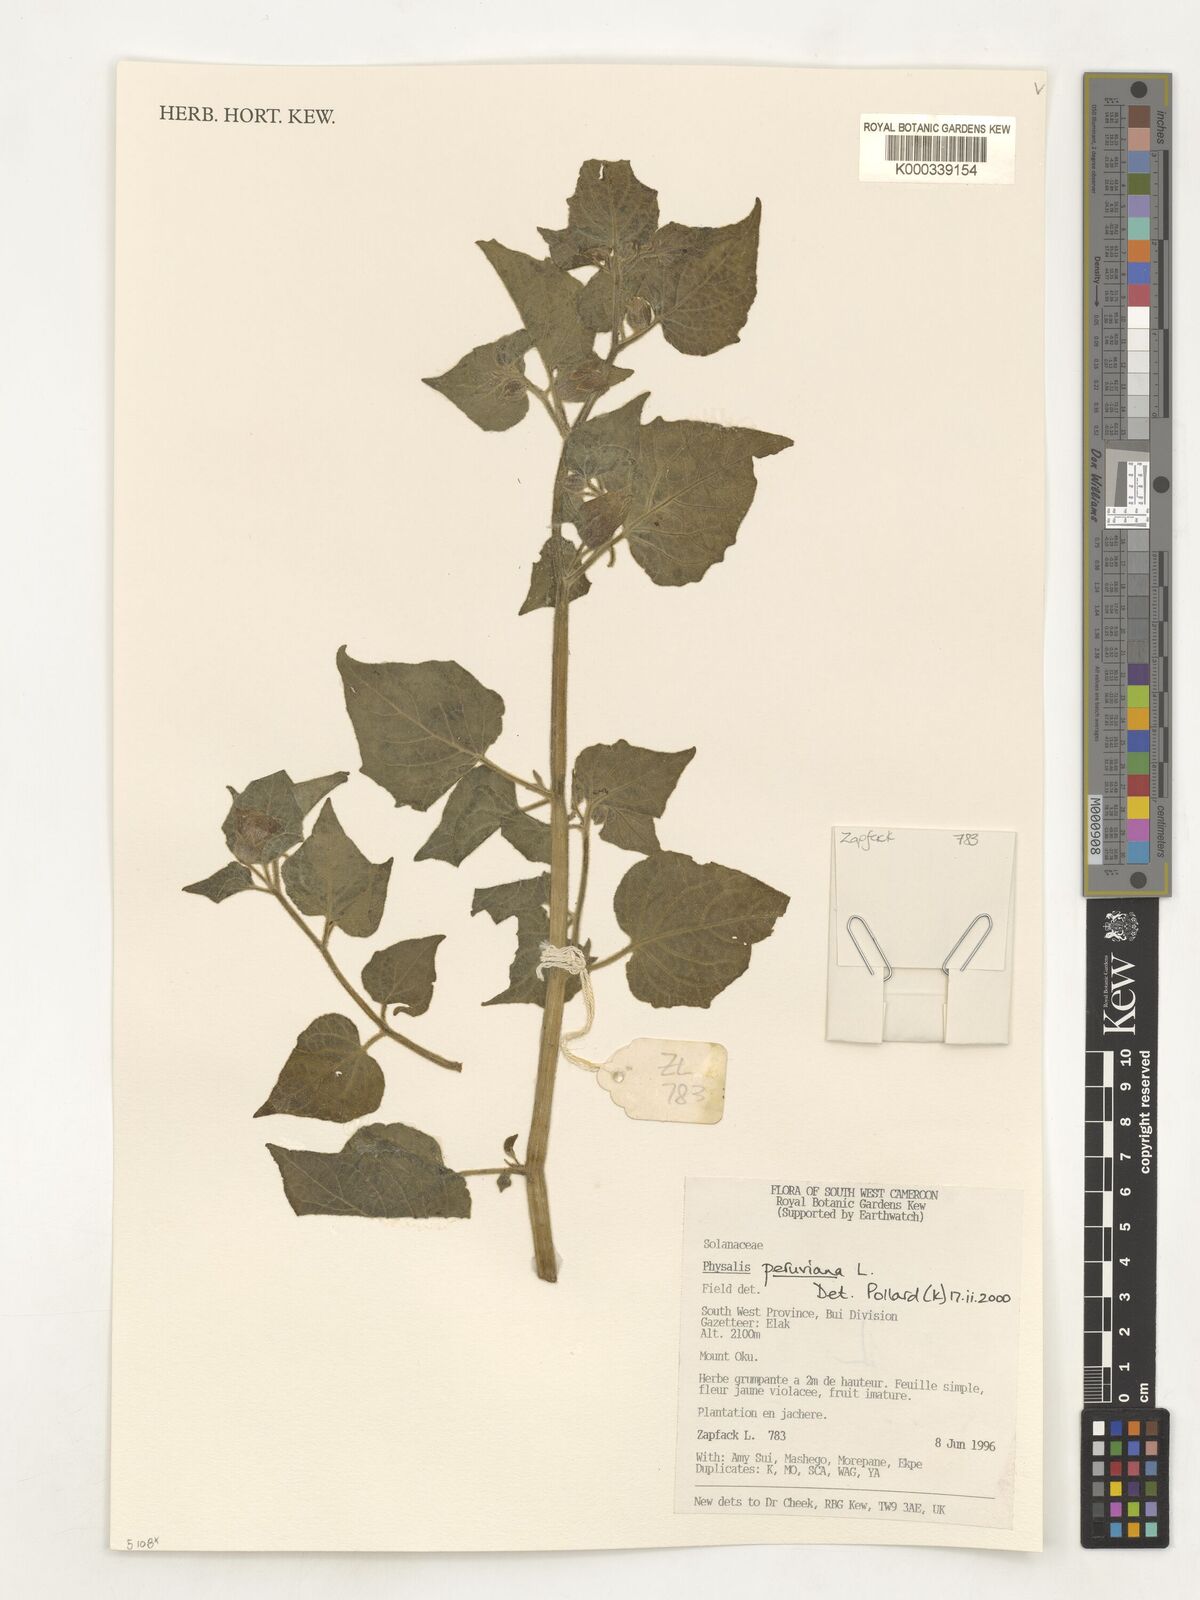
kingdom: Plantae
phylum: Tracheophyta
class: Magnoliopsida
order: Solanales
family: Solanaceae
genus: Physalis
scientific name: Physalis peruviana
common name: Cape-gooseberry
